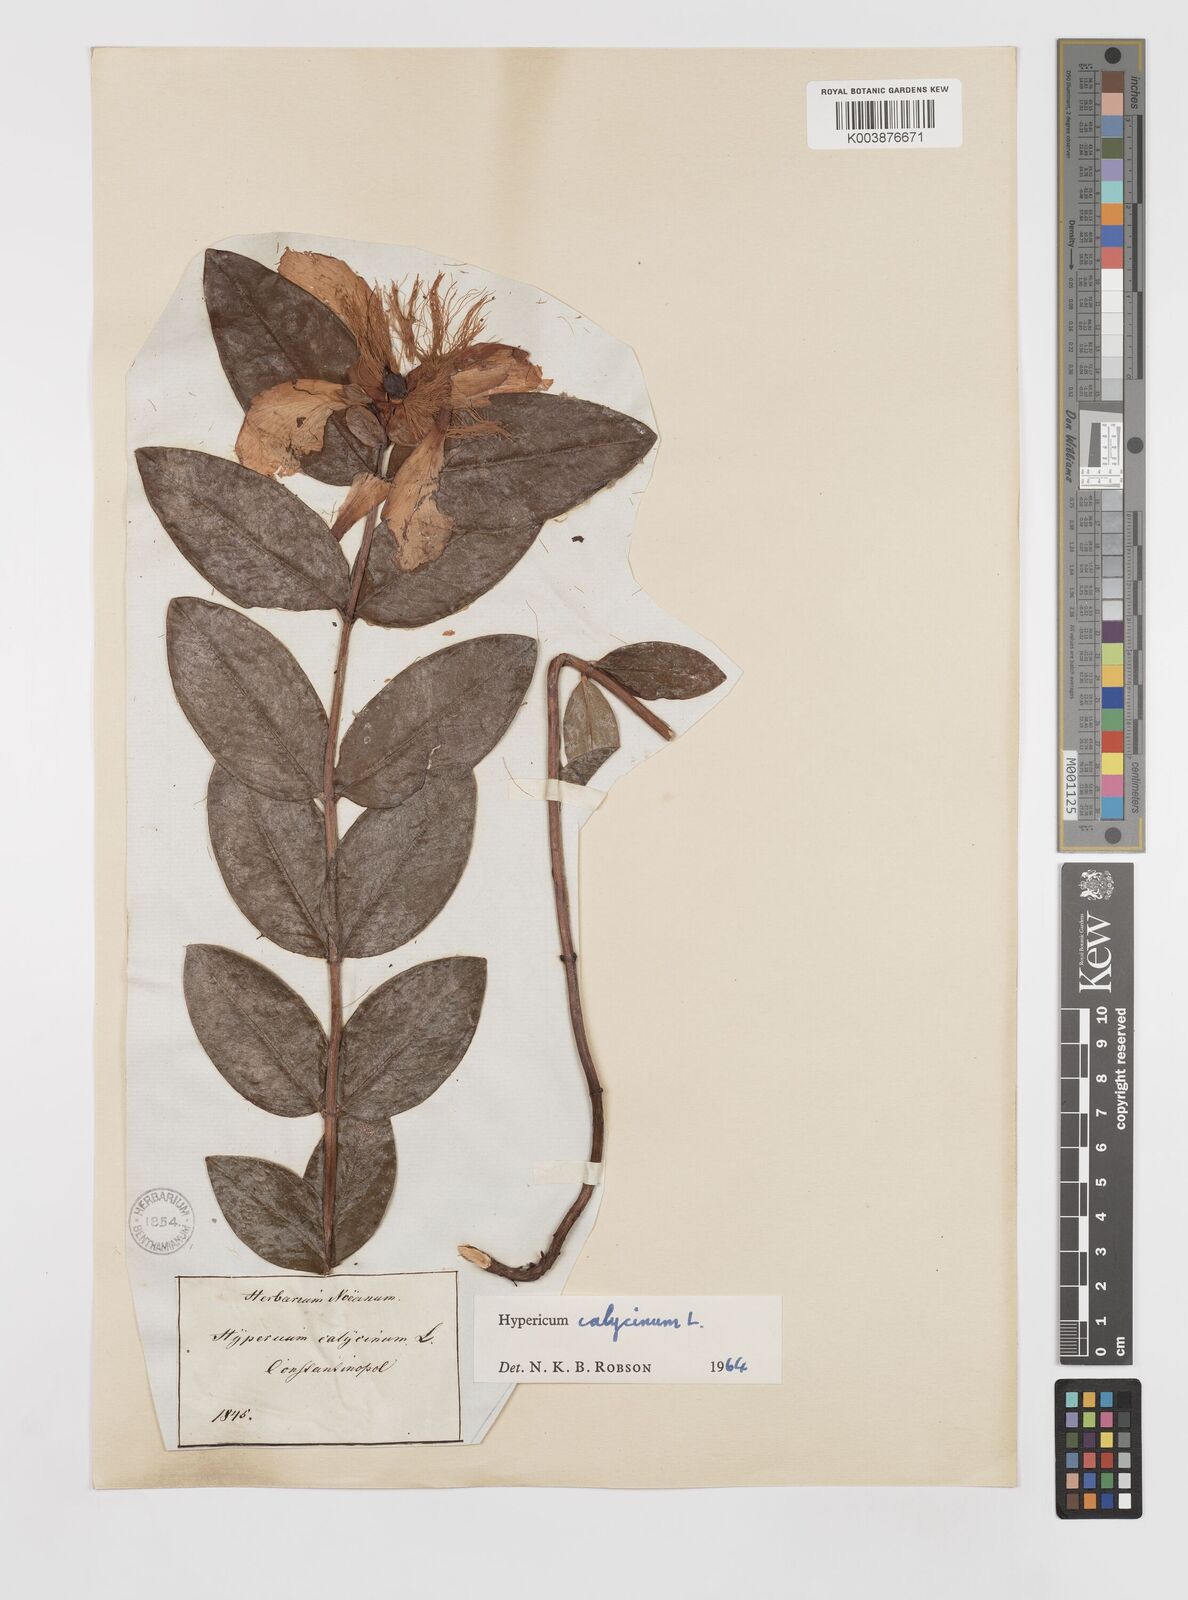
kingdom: Plantae
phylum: Tracheophyta
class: Magnoliopsida
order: Malpighiales
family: Hypericaceae
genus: Hypericum
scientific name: Hypericum calycinum
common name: Rose-of-sharon
